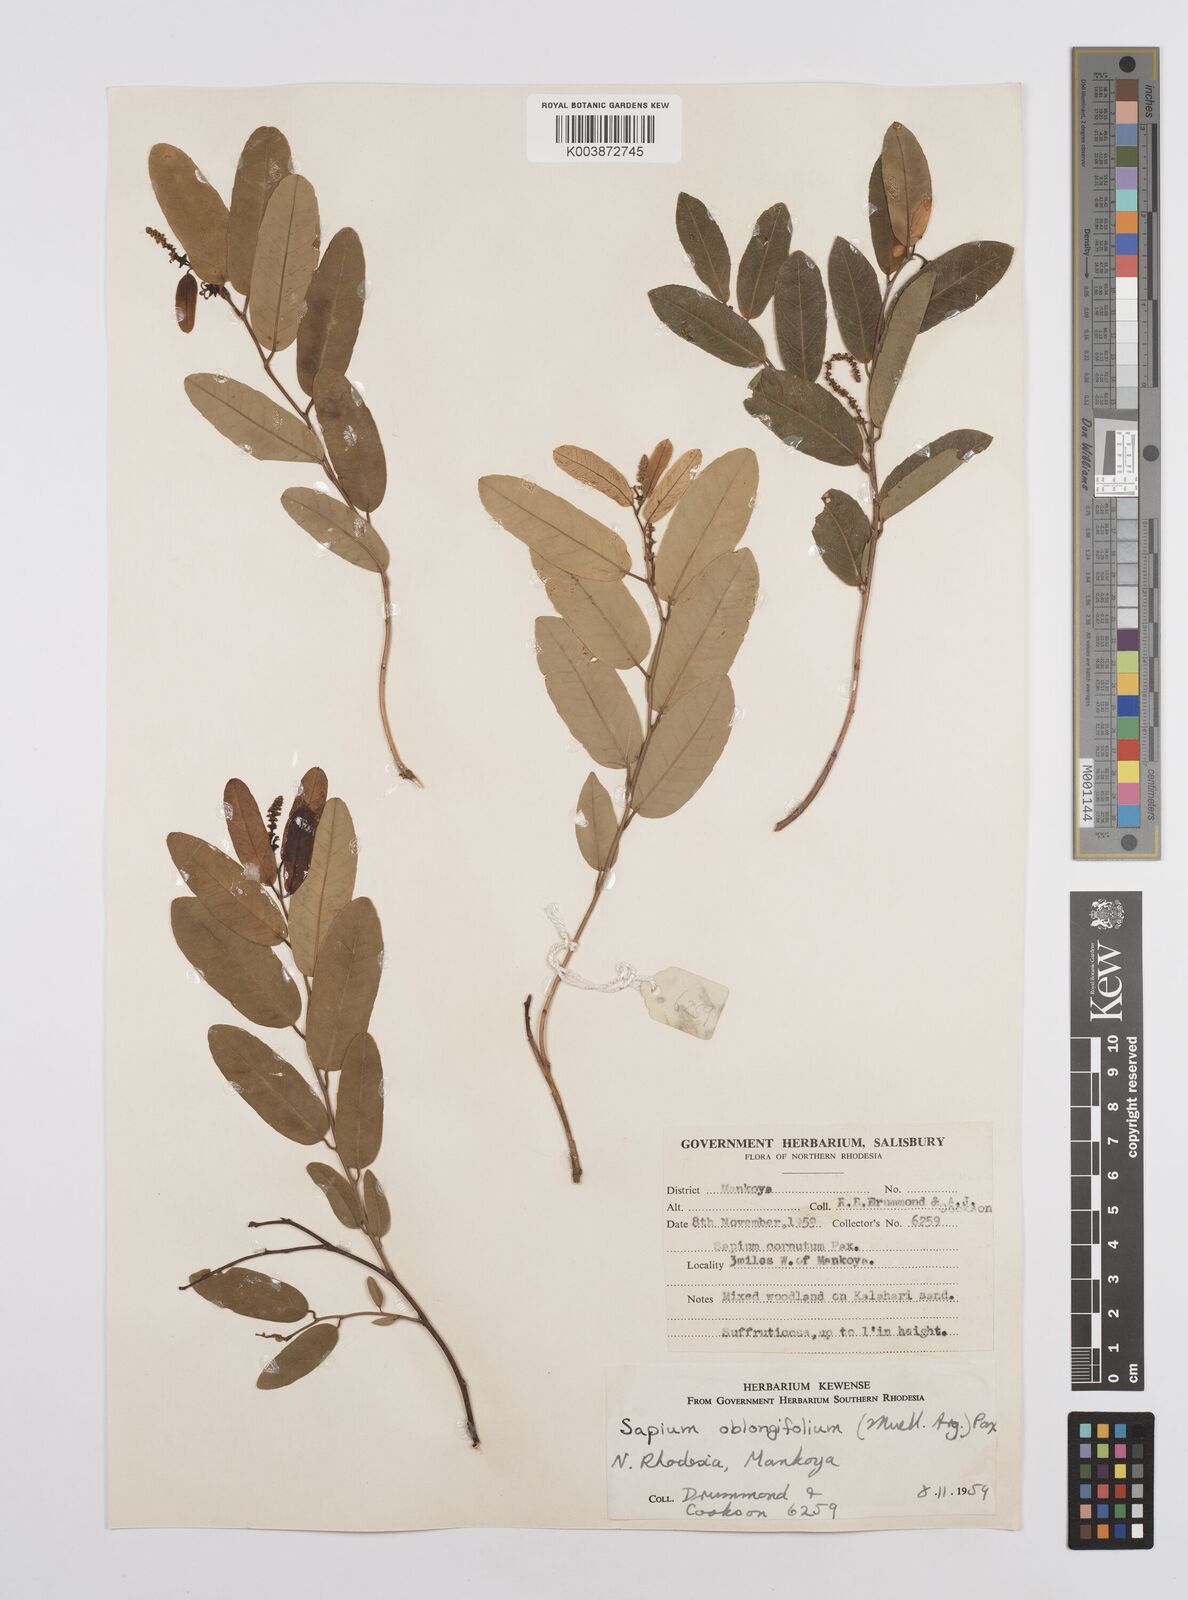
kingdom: Plantae
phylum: Tracheophyta
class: Magnoliopsida
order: Malpighiales
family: Euphorbiaceae
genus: Sclerocroton
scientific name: Sclerocroton oblongifolius
